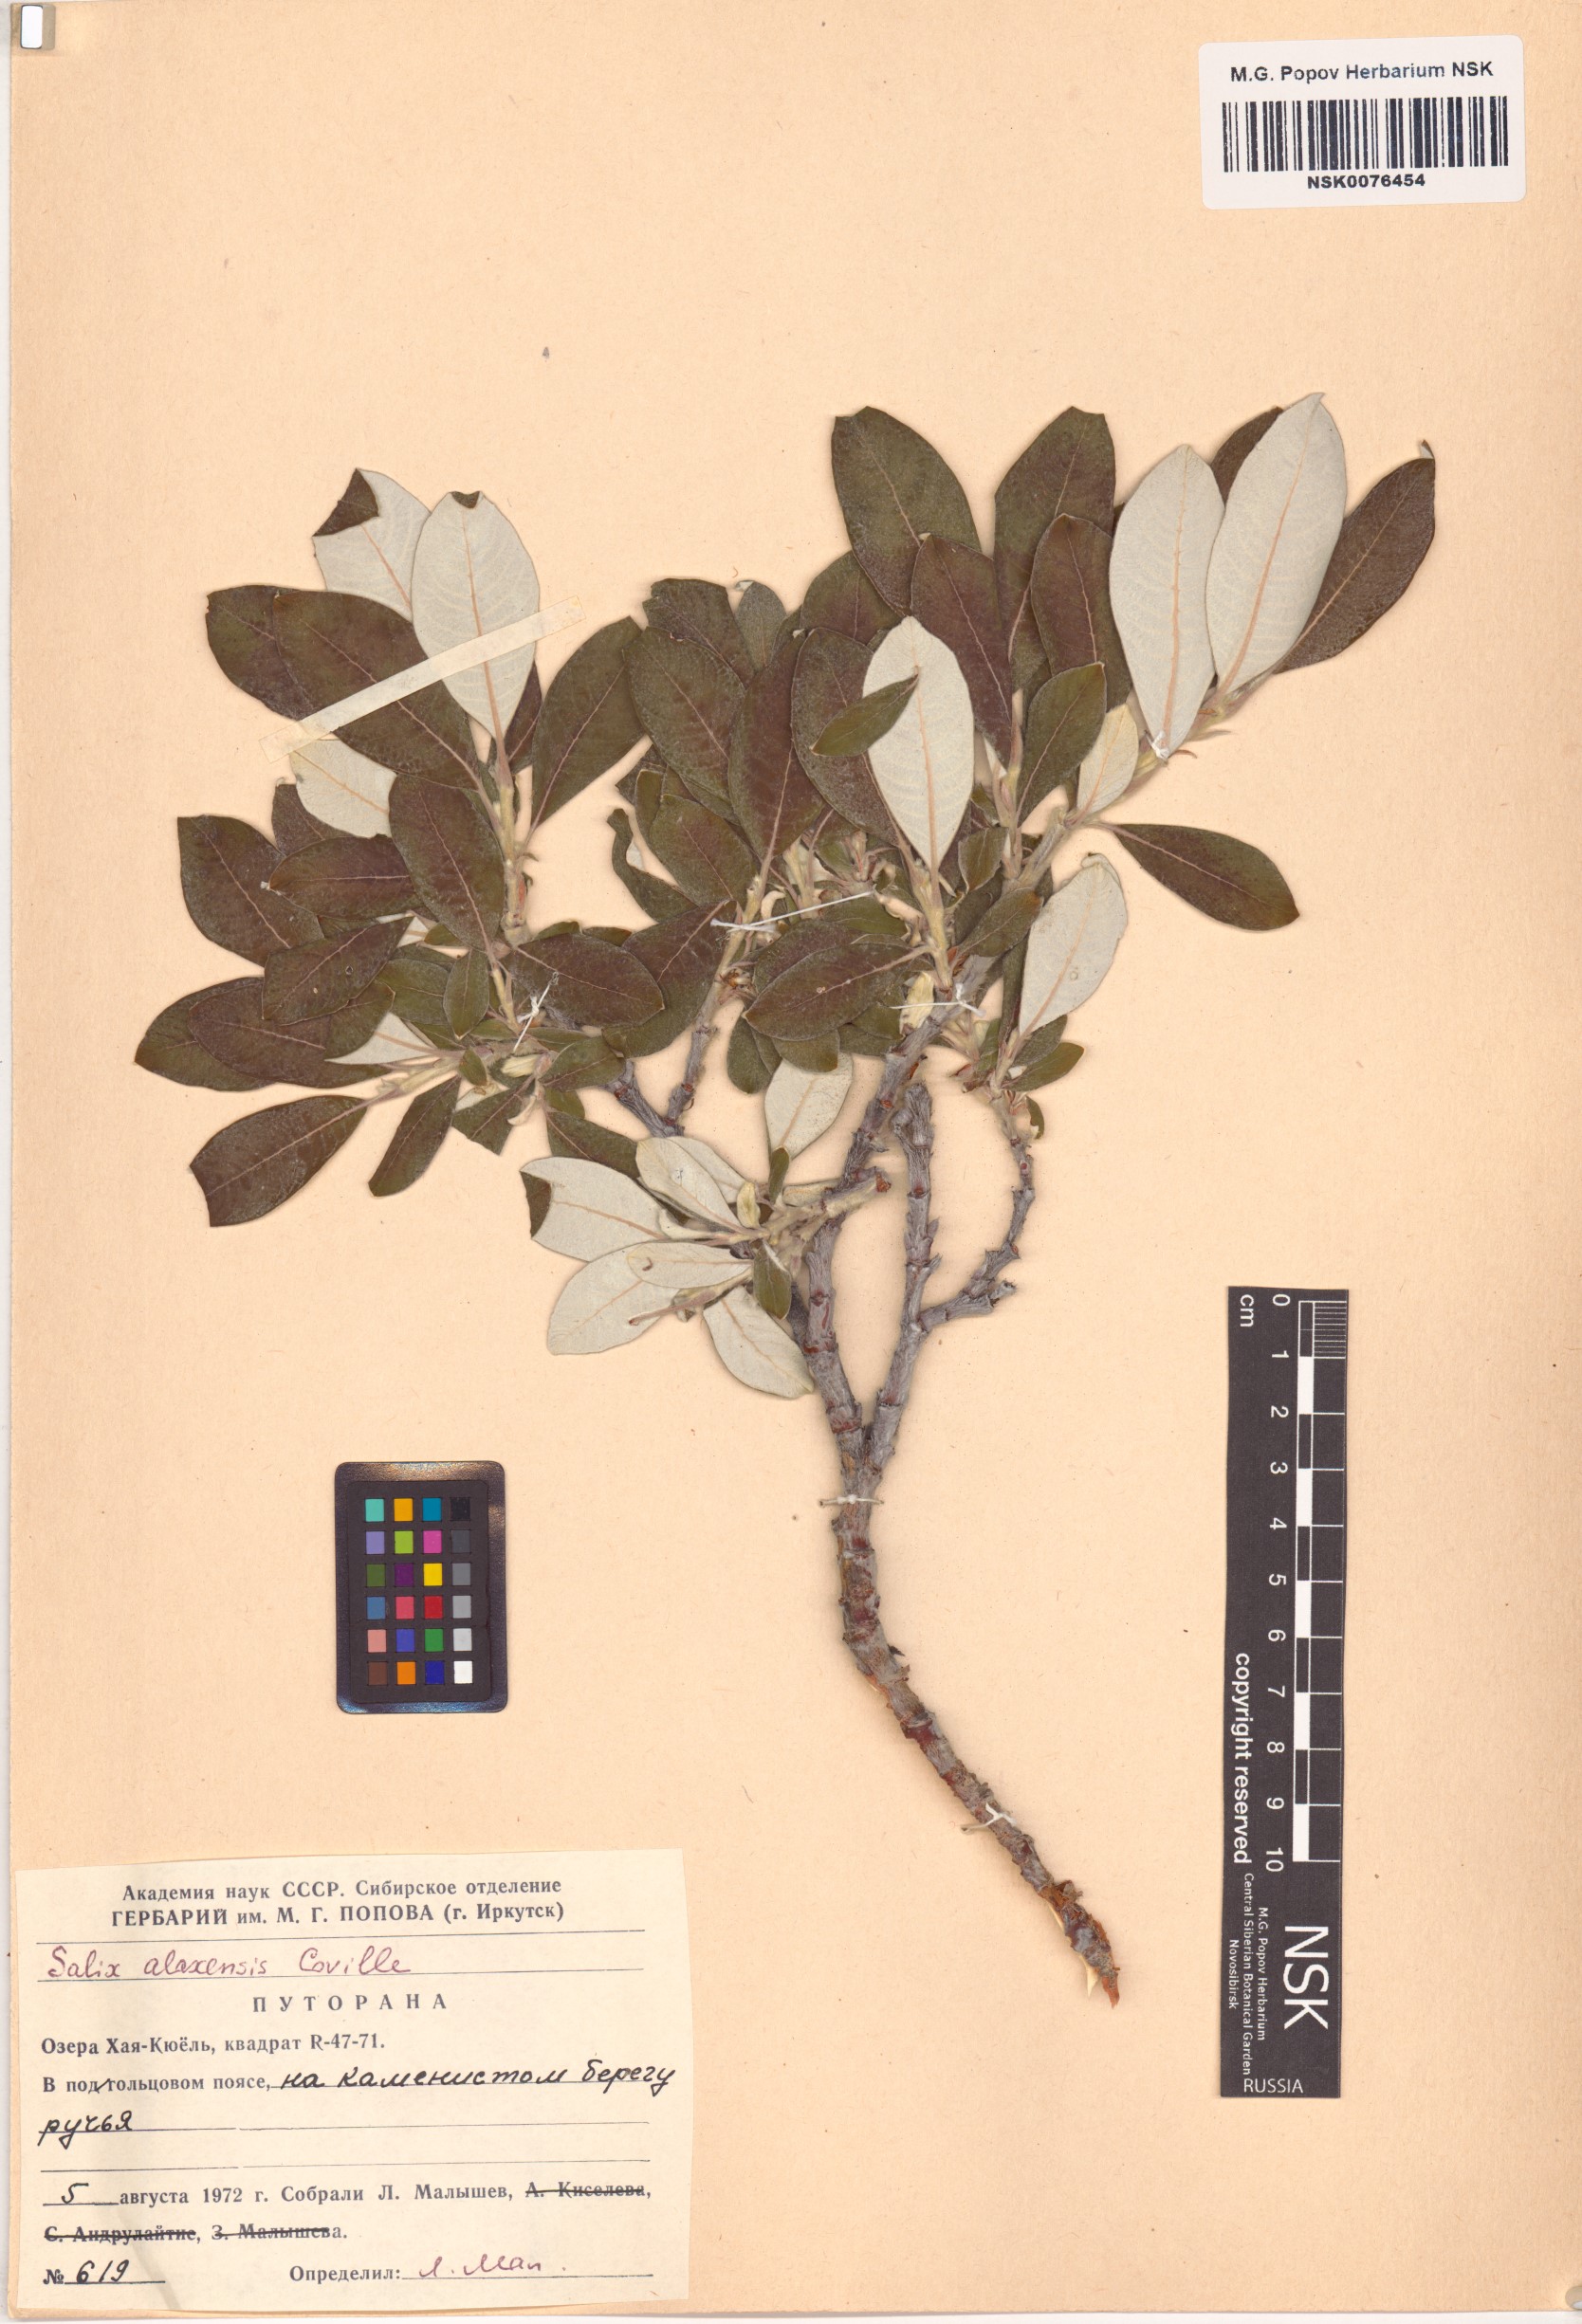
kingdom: Plantae
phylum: Tracheophyta
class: Magnoliopsida
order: Malpighiales
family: Salicaceae
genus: Salix
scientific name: Salix alaxensis
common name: Feltleaf willow
